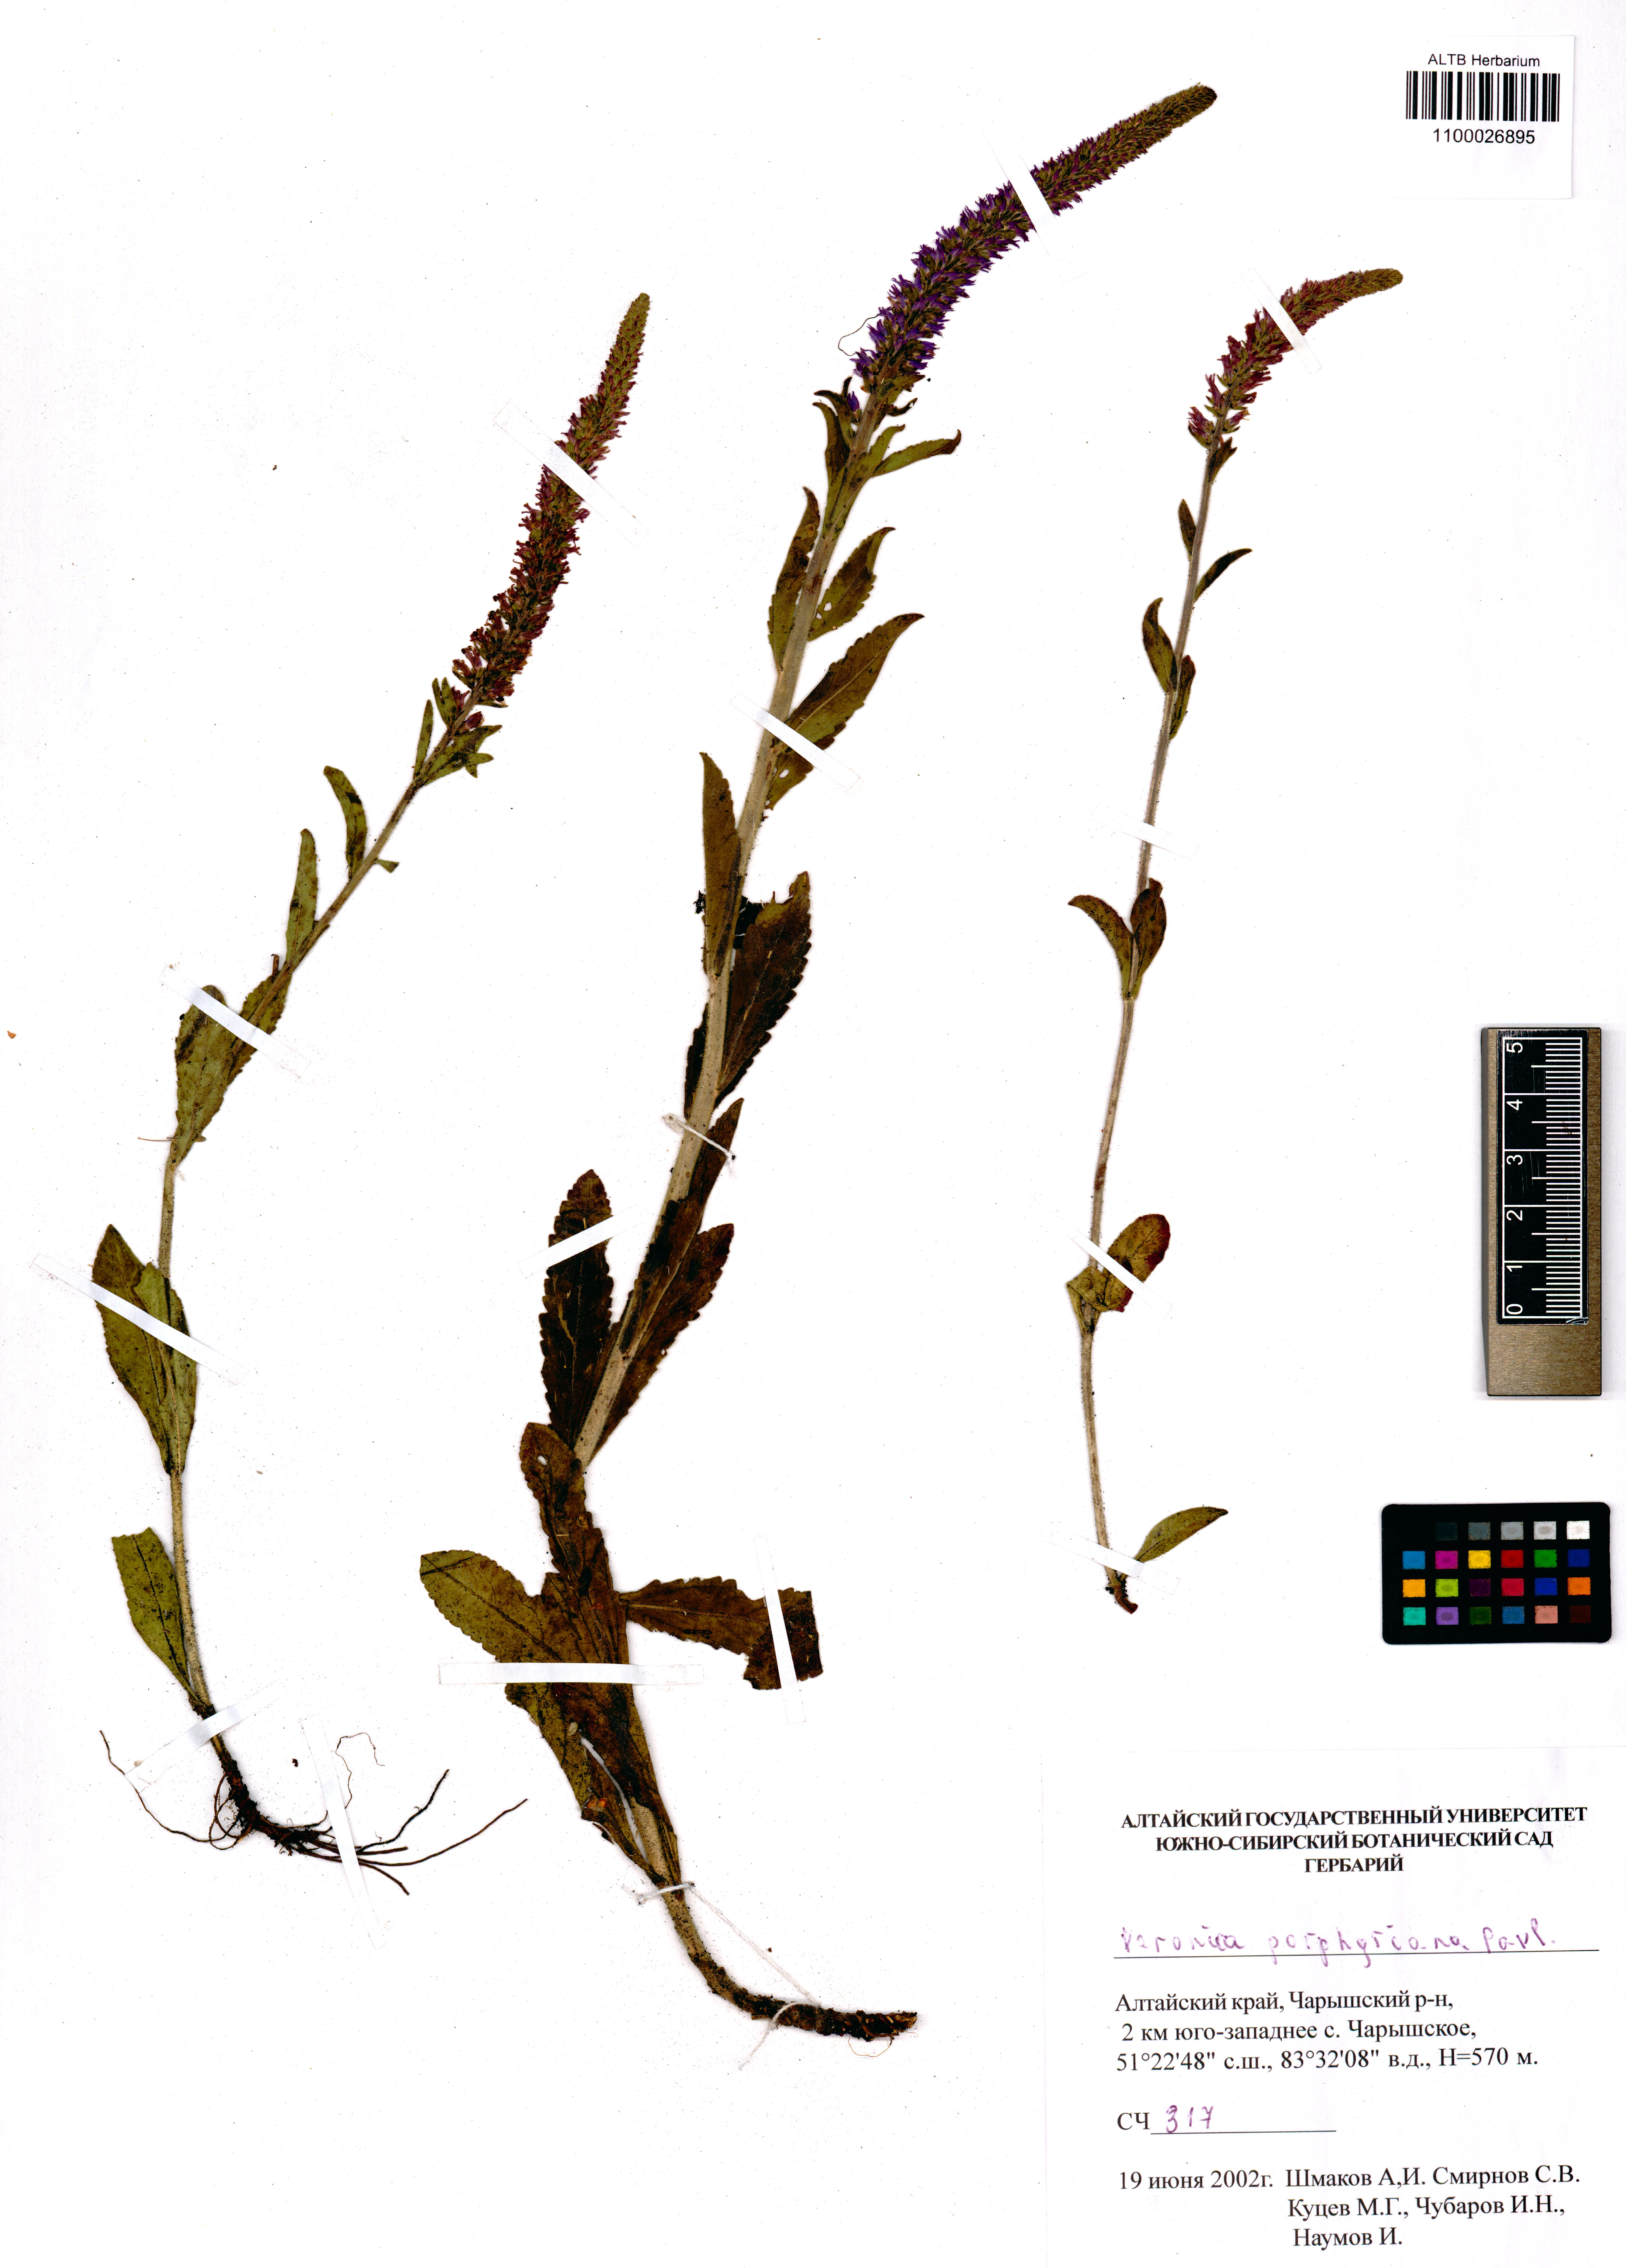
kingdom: Plantae
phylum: Tracheophyta
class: Magnoliopsida
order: Lamiales
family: Plantaginaceae
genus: Veronica
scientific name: Veronica porphyriana
